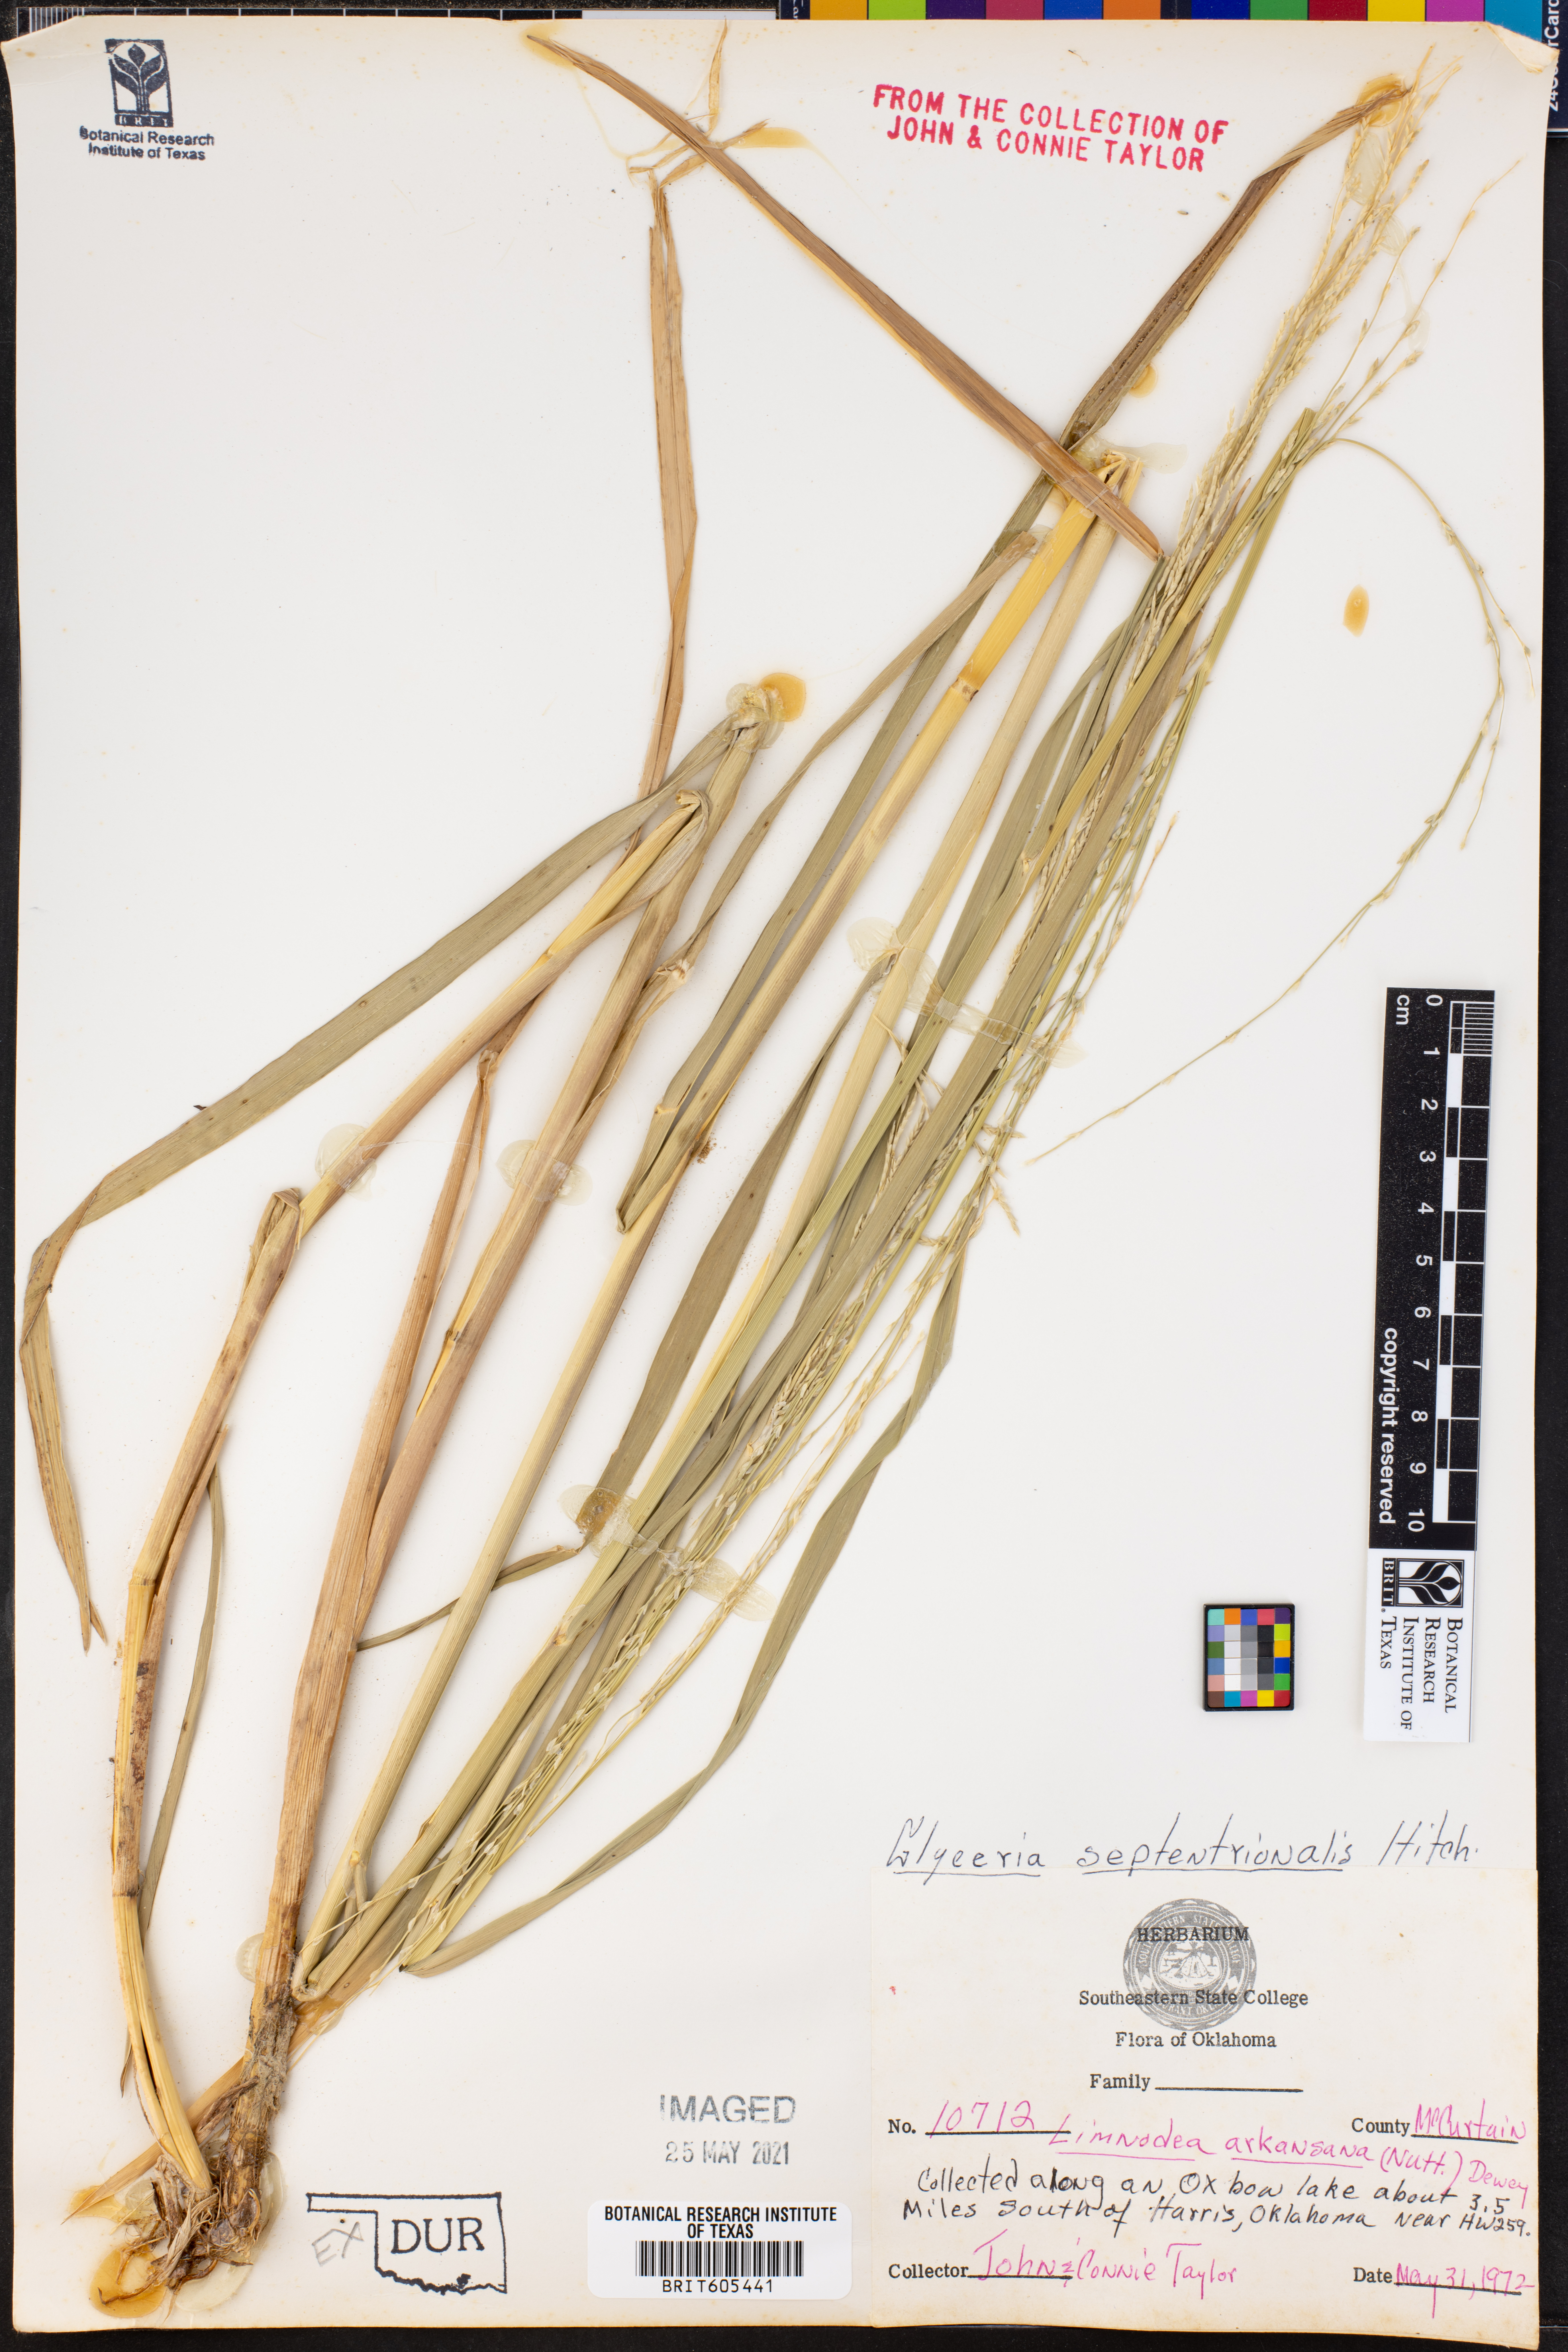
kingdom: Plantae
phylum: Tracheophyta
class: Liliopsida
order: Poales
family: Poaceae
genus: Glyceria
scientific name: Glyceria septentrionalis
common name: Eastern mannagrass
